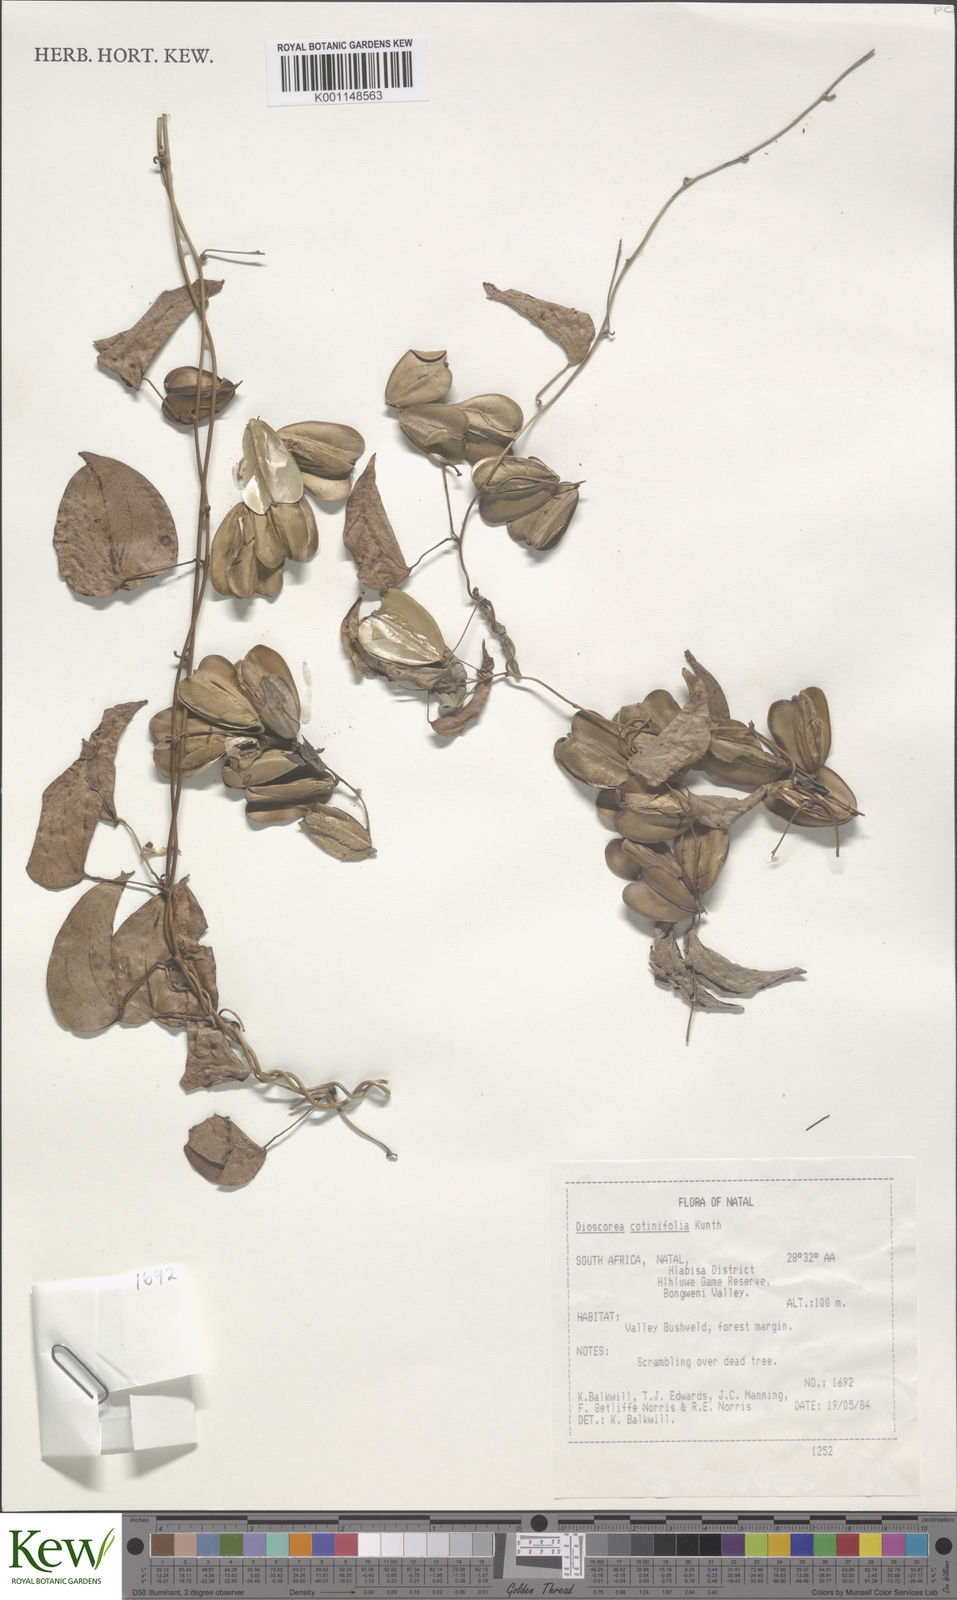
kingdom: Plantae
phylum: Tracheophyta
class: Liliopsida
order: Dioscoreales
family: Dioscoreaceae
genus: Dioscorea
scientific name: Dioscorea cotinifolia
